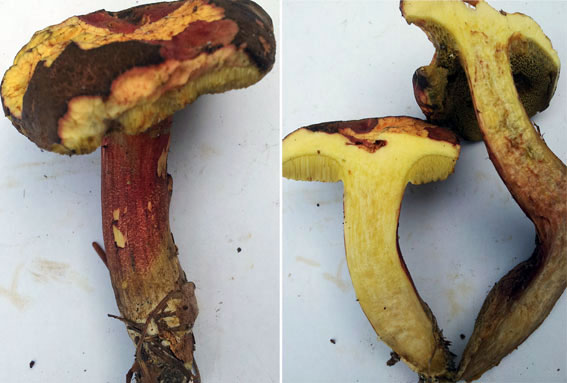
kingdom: Fungi
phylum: Basidiomycota
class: Agaricomycetes
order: Boletales
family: Boletaceae
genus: Xerocomellus
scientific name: Xerocomellus chrysenteron
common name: rødsprukken rørhat
